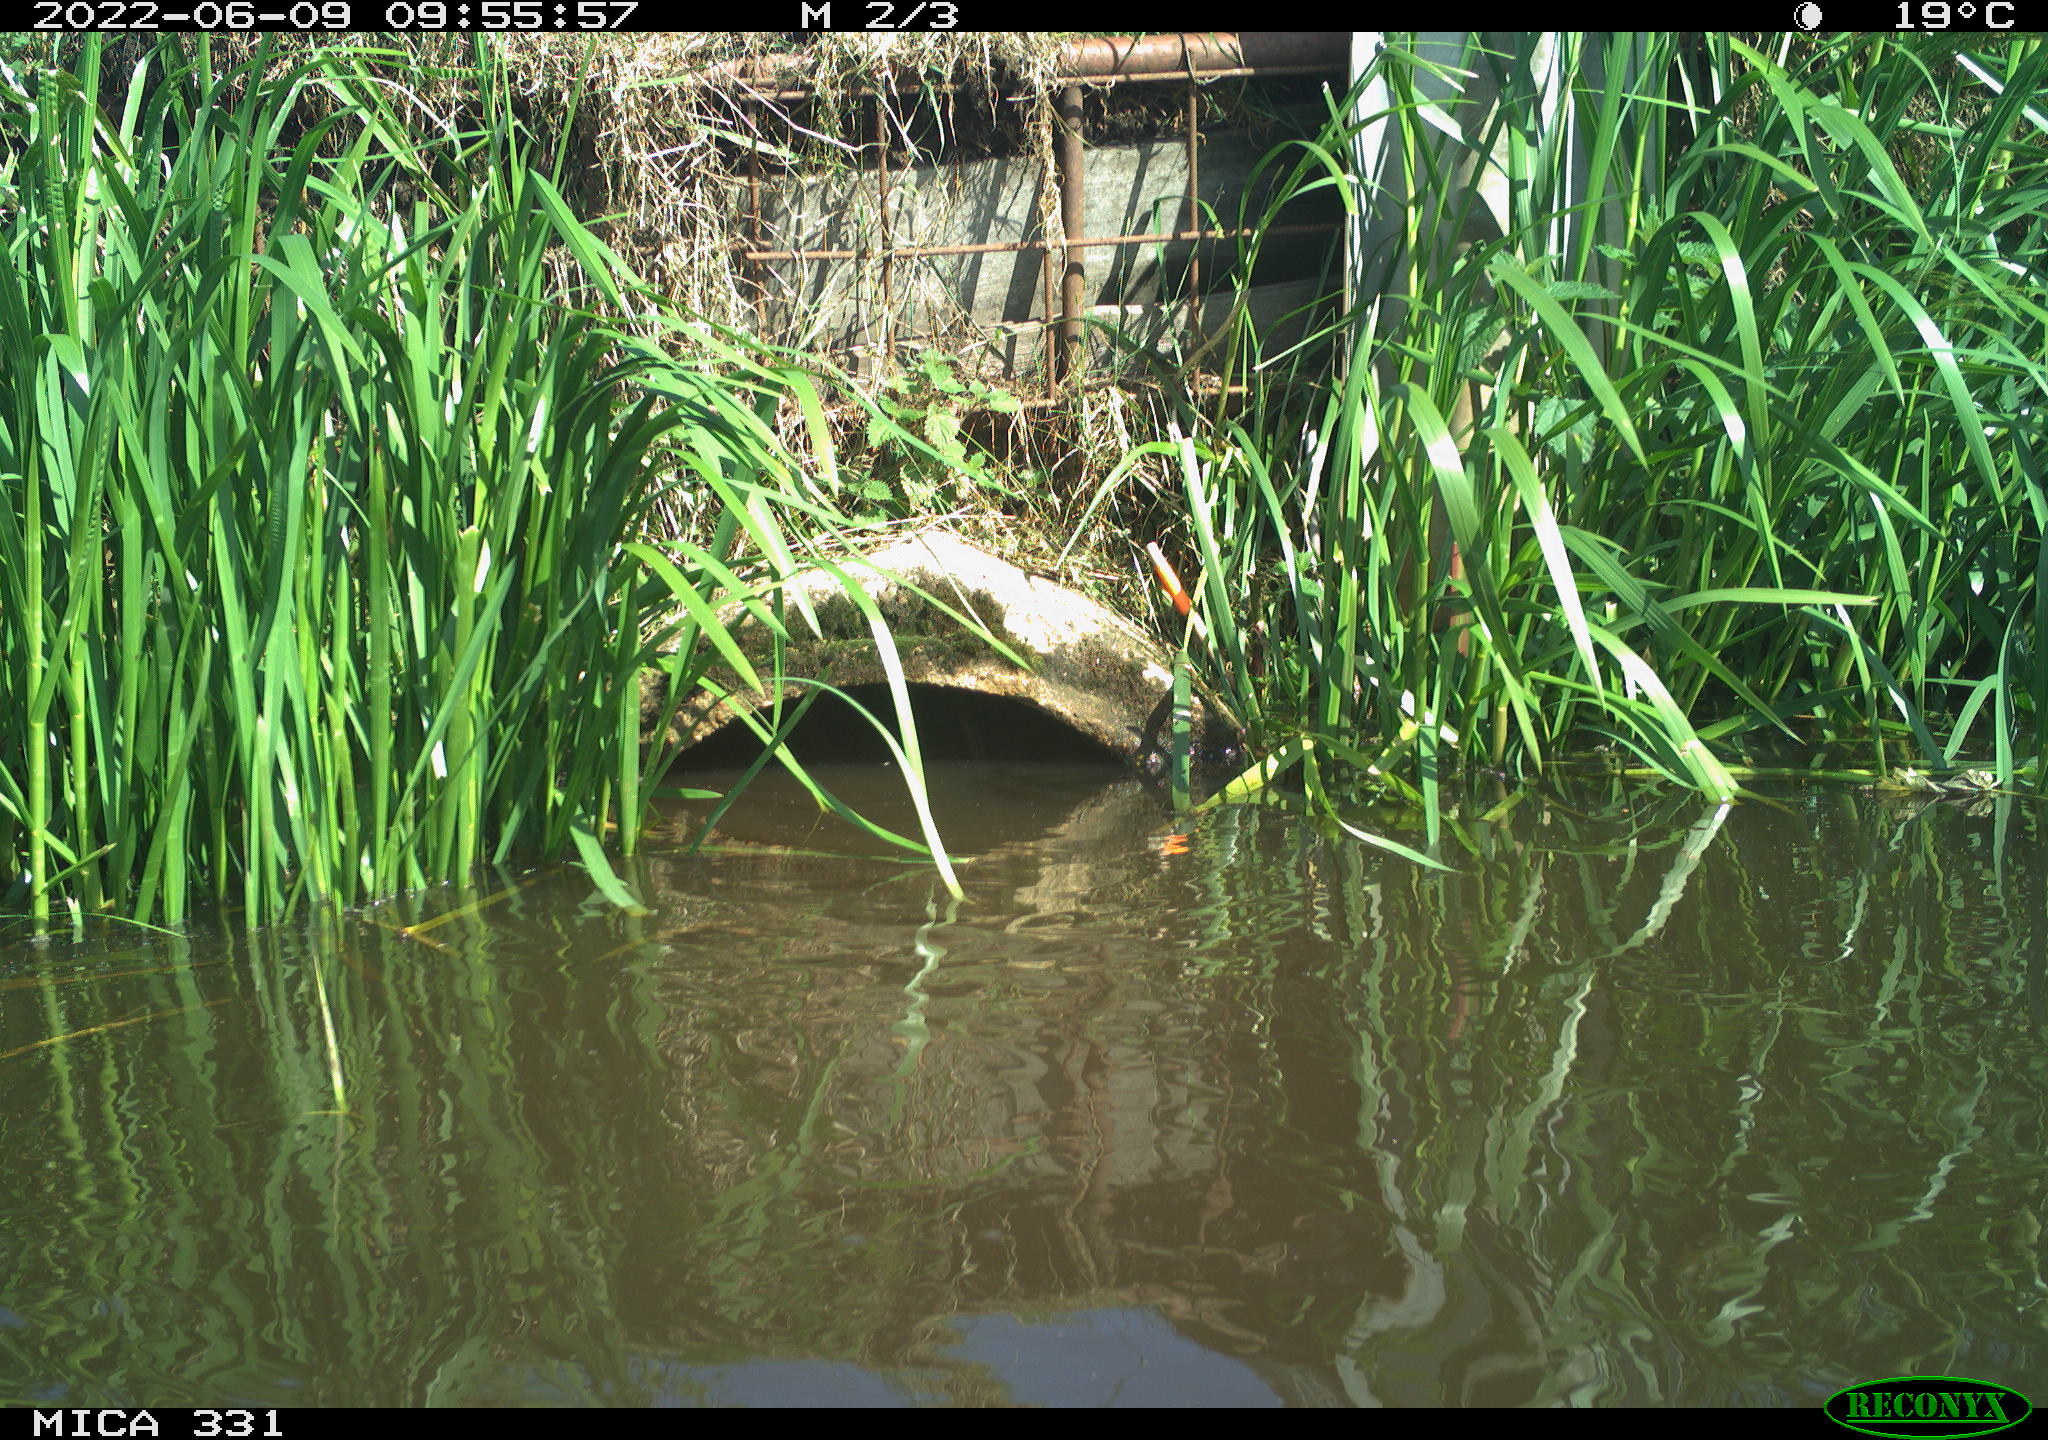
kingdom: Animalia
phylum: Chordata
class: Aves
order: Gruiformes
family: Rallidae
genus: Fulica
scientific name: Fulica atra
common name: Eurasian coot
